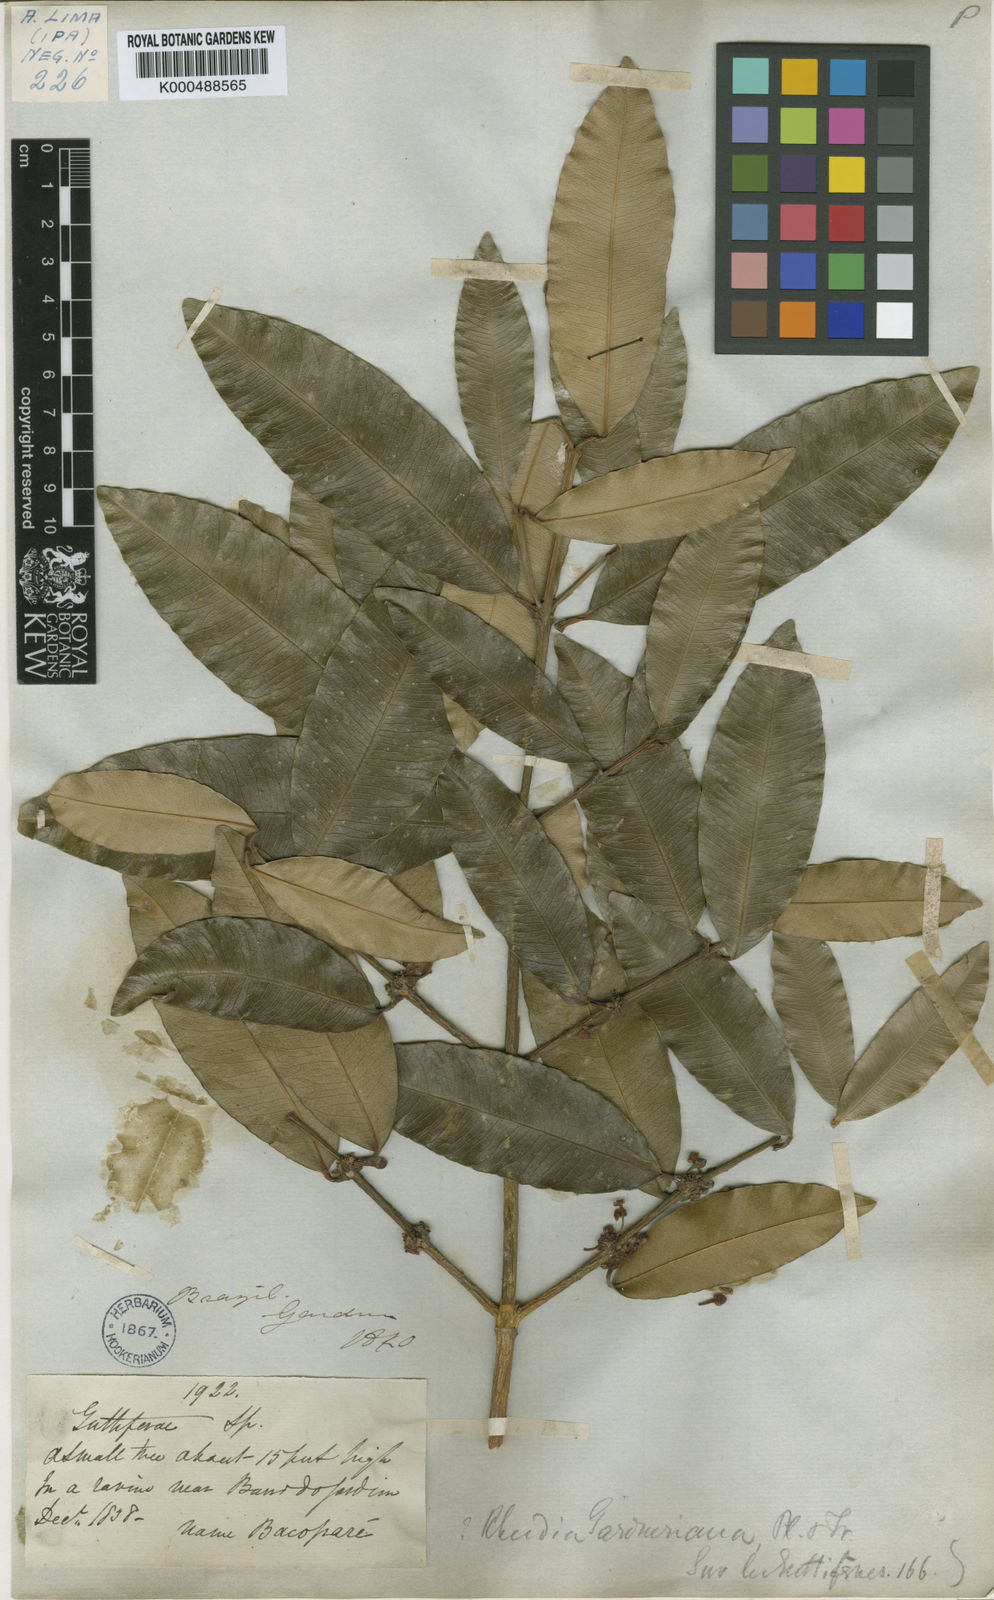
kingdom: Plantae
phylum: Tracheophyta
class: Magnoliopsida
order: Malpighiales
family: Clusiaceae
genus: Garcinia
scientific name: Garcinia gardneriana
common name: Achacha
